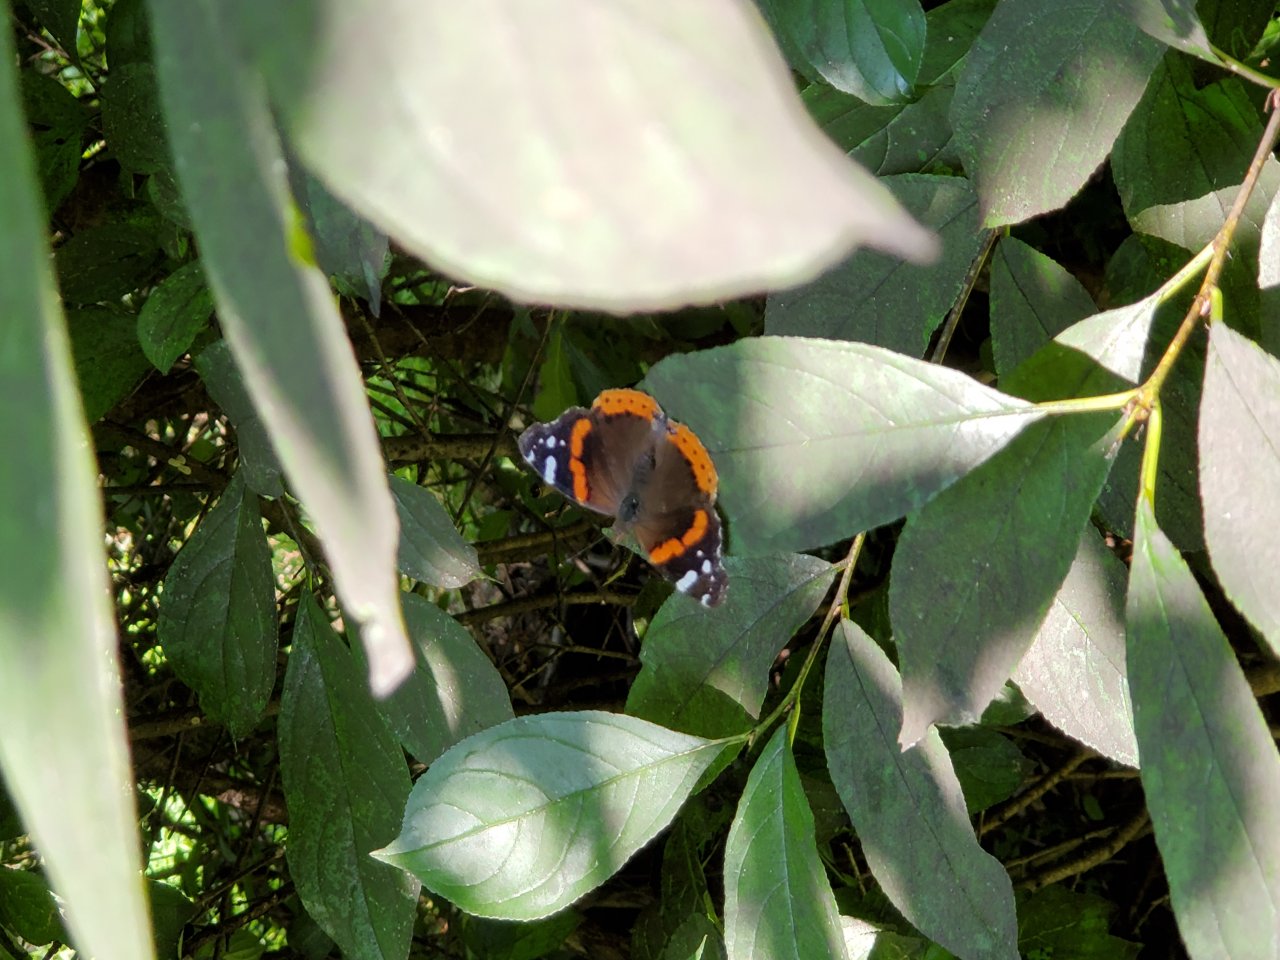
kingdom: Animalia
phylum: Arthropoda
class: Insecta
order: Lepidoptera
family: Nymphalidae
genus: Vanessa
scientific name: Vanessa atalanta
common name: Red Admiral
